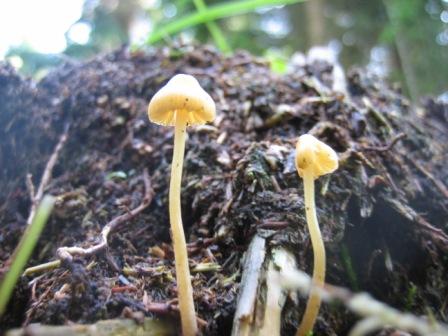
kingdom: Fungi
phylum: Basidiomycota
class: Agaricomycetes
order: Agaricales
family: Hymenogastraceae
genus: Galerina
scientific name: Galerina clavata
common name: kær-hjelmhat
